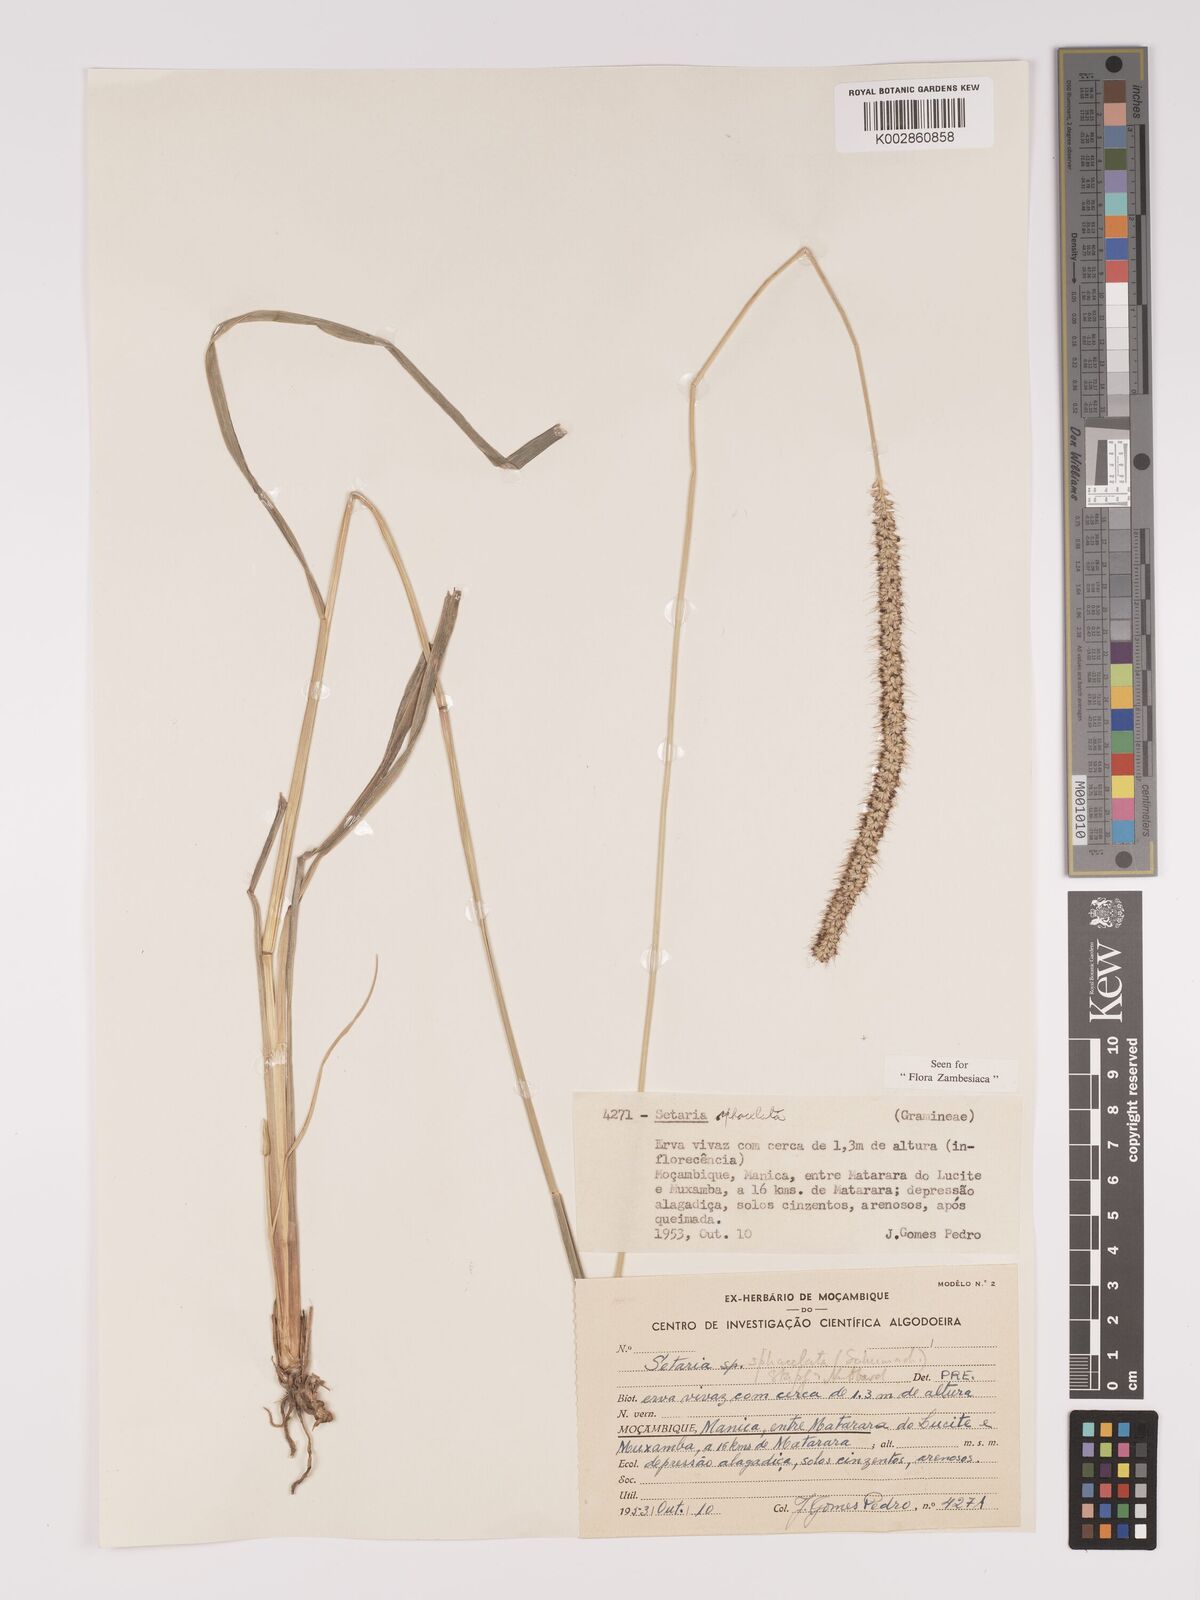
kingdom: Plantae
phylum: Tracheophyta
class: Liliopsida
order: Poales
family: Poaceae
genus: Setaria
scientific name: Setaria sphacelata
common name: African bristlegrass
